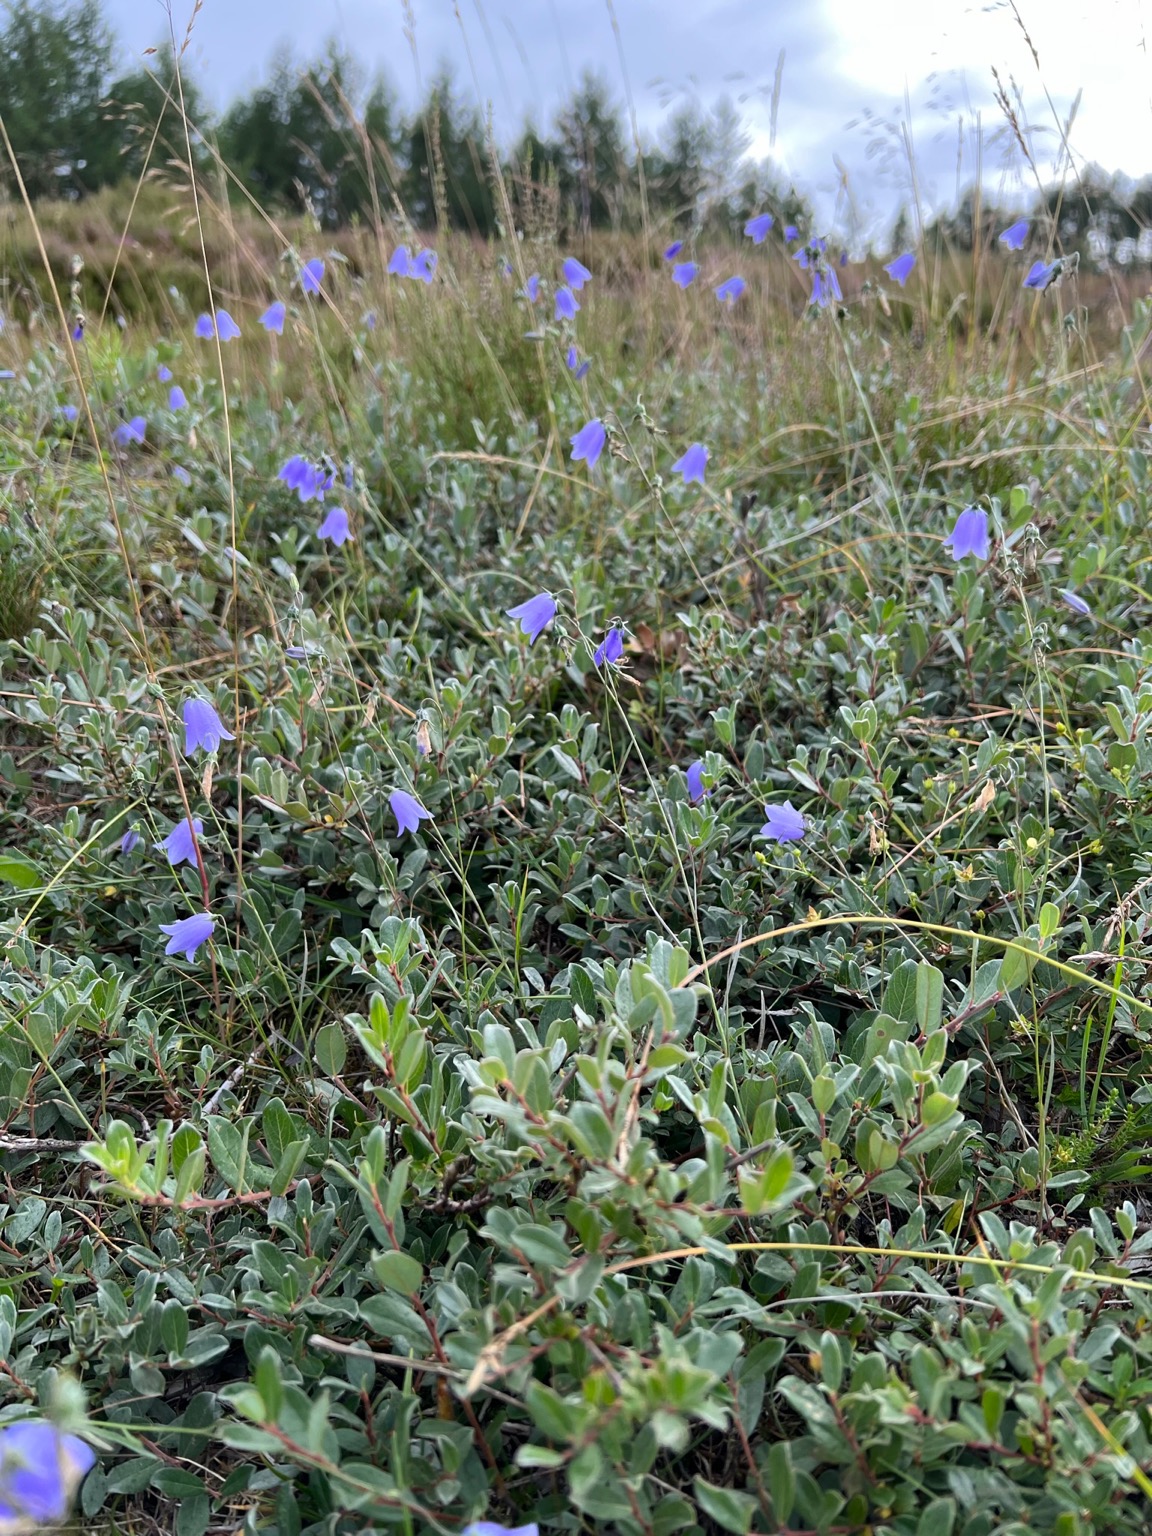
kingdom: Plantae
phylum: Tracheophyta
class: Magnoliopsida
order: Asterales
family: Campanulaceae
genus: Campanula
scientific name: Campanula rotundifolia
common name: Liden klokke
